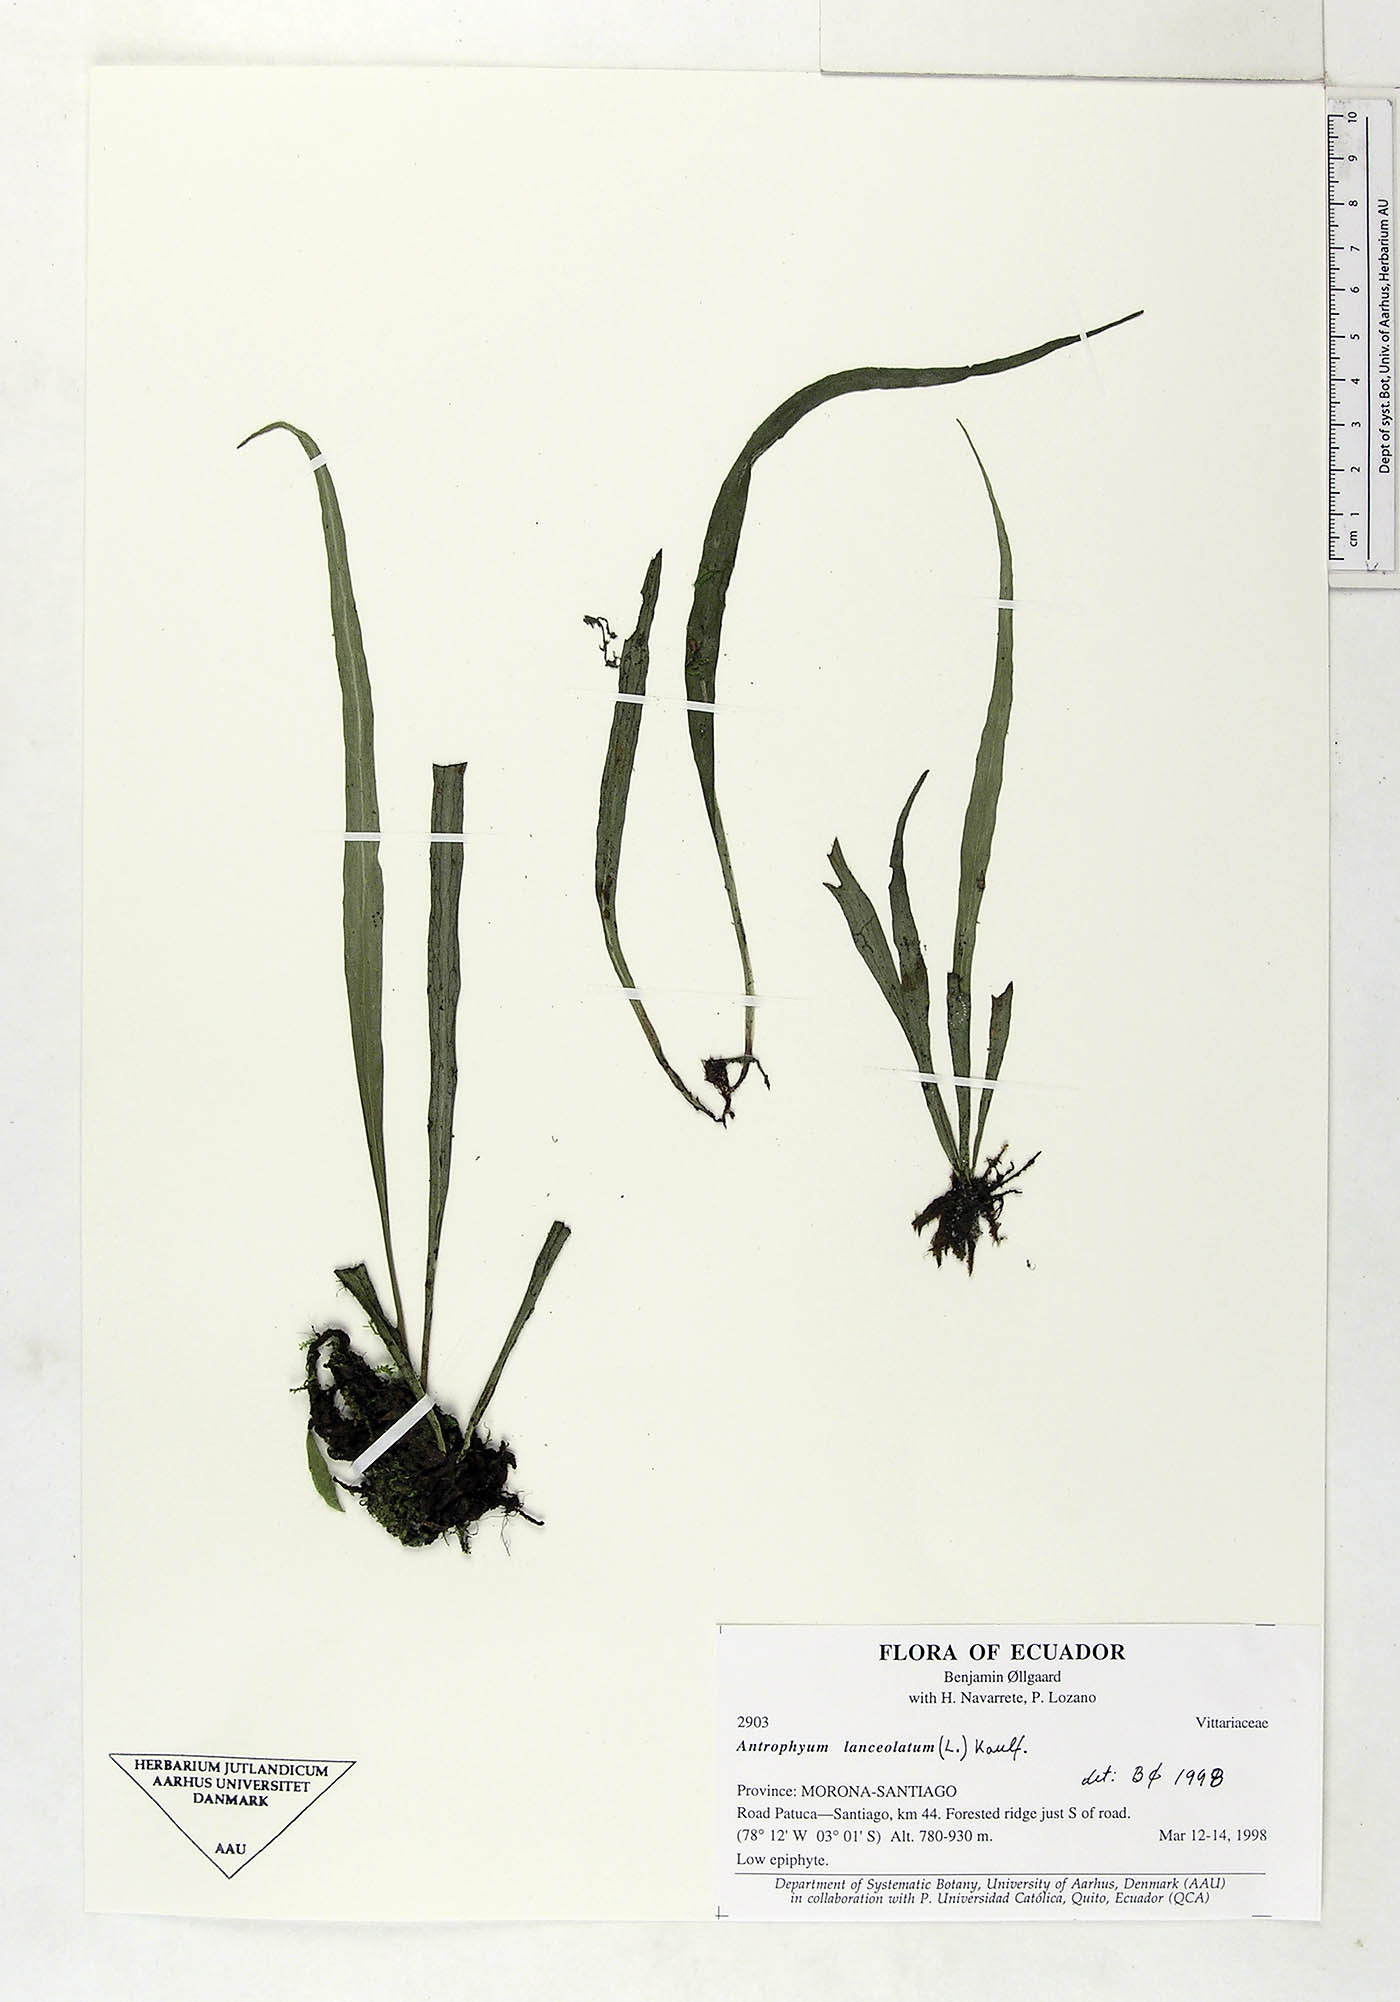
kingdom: Plantae
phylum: Tracheophyta
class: Polypodiopsida
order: Polypodiales
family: Pteridaceae
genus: Polytaenium
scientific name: Polytaenium feei
